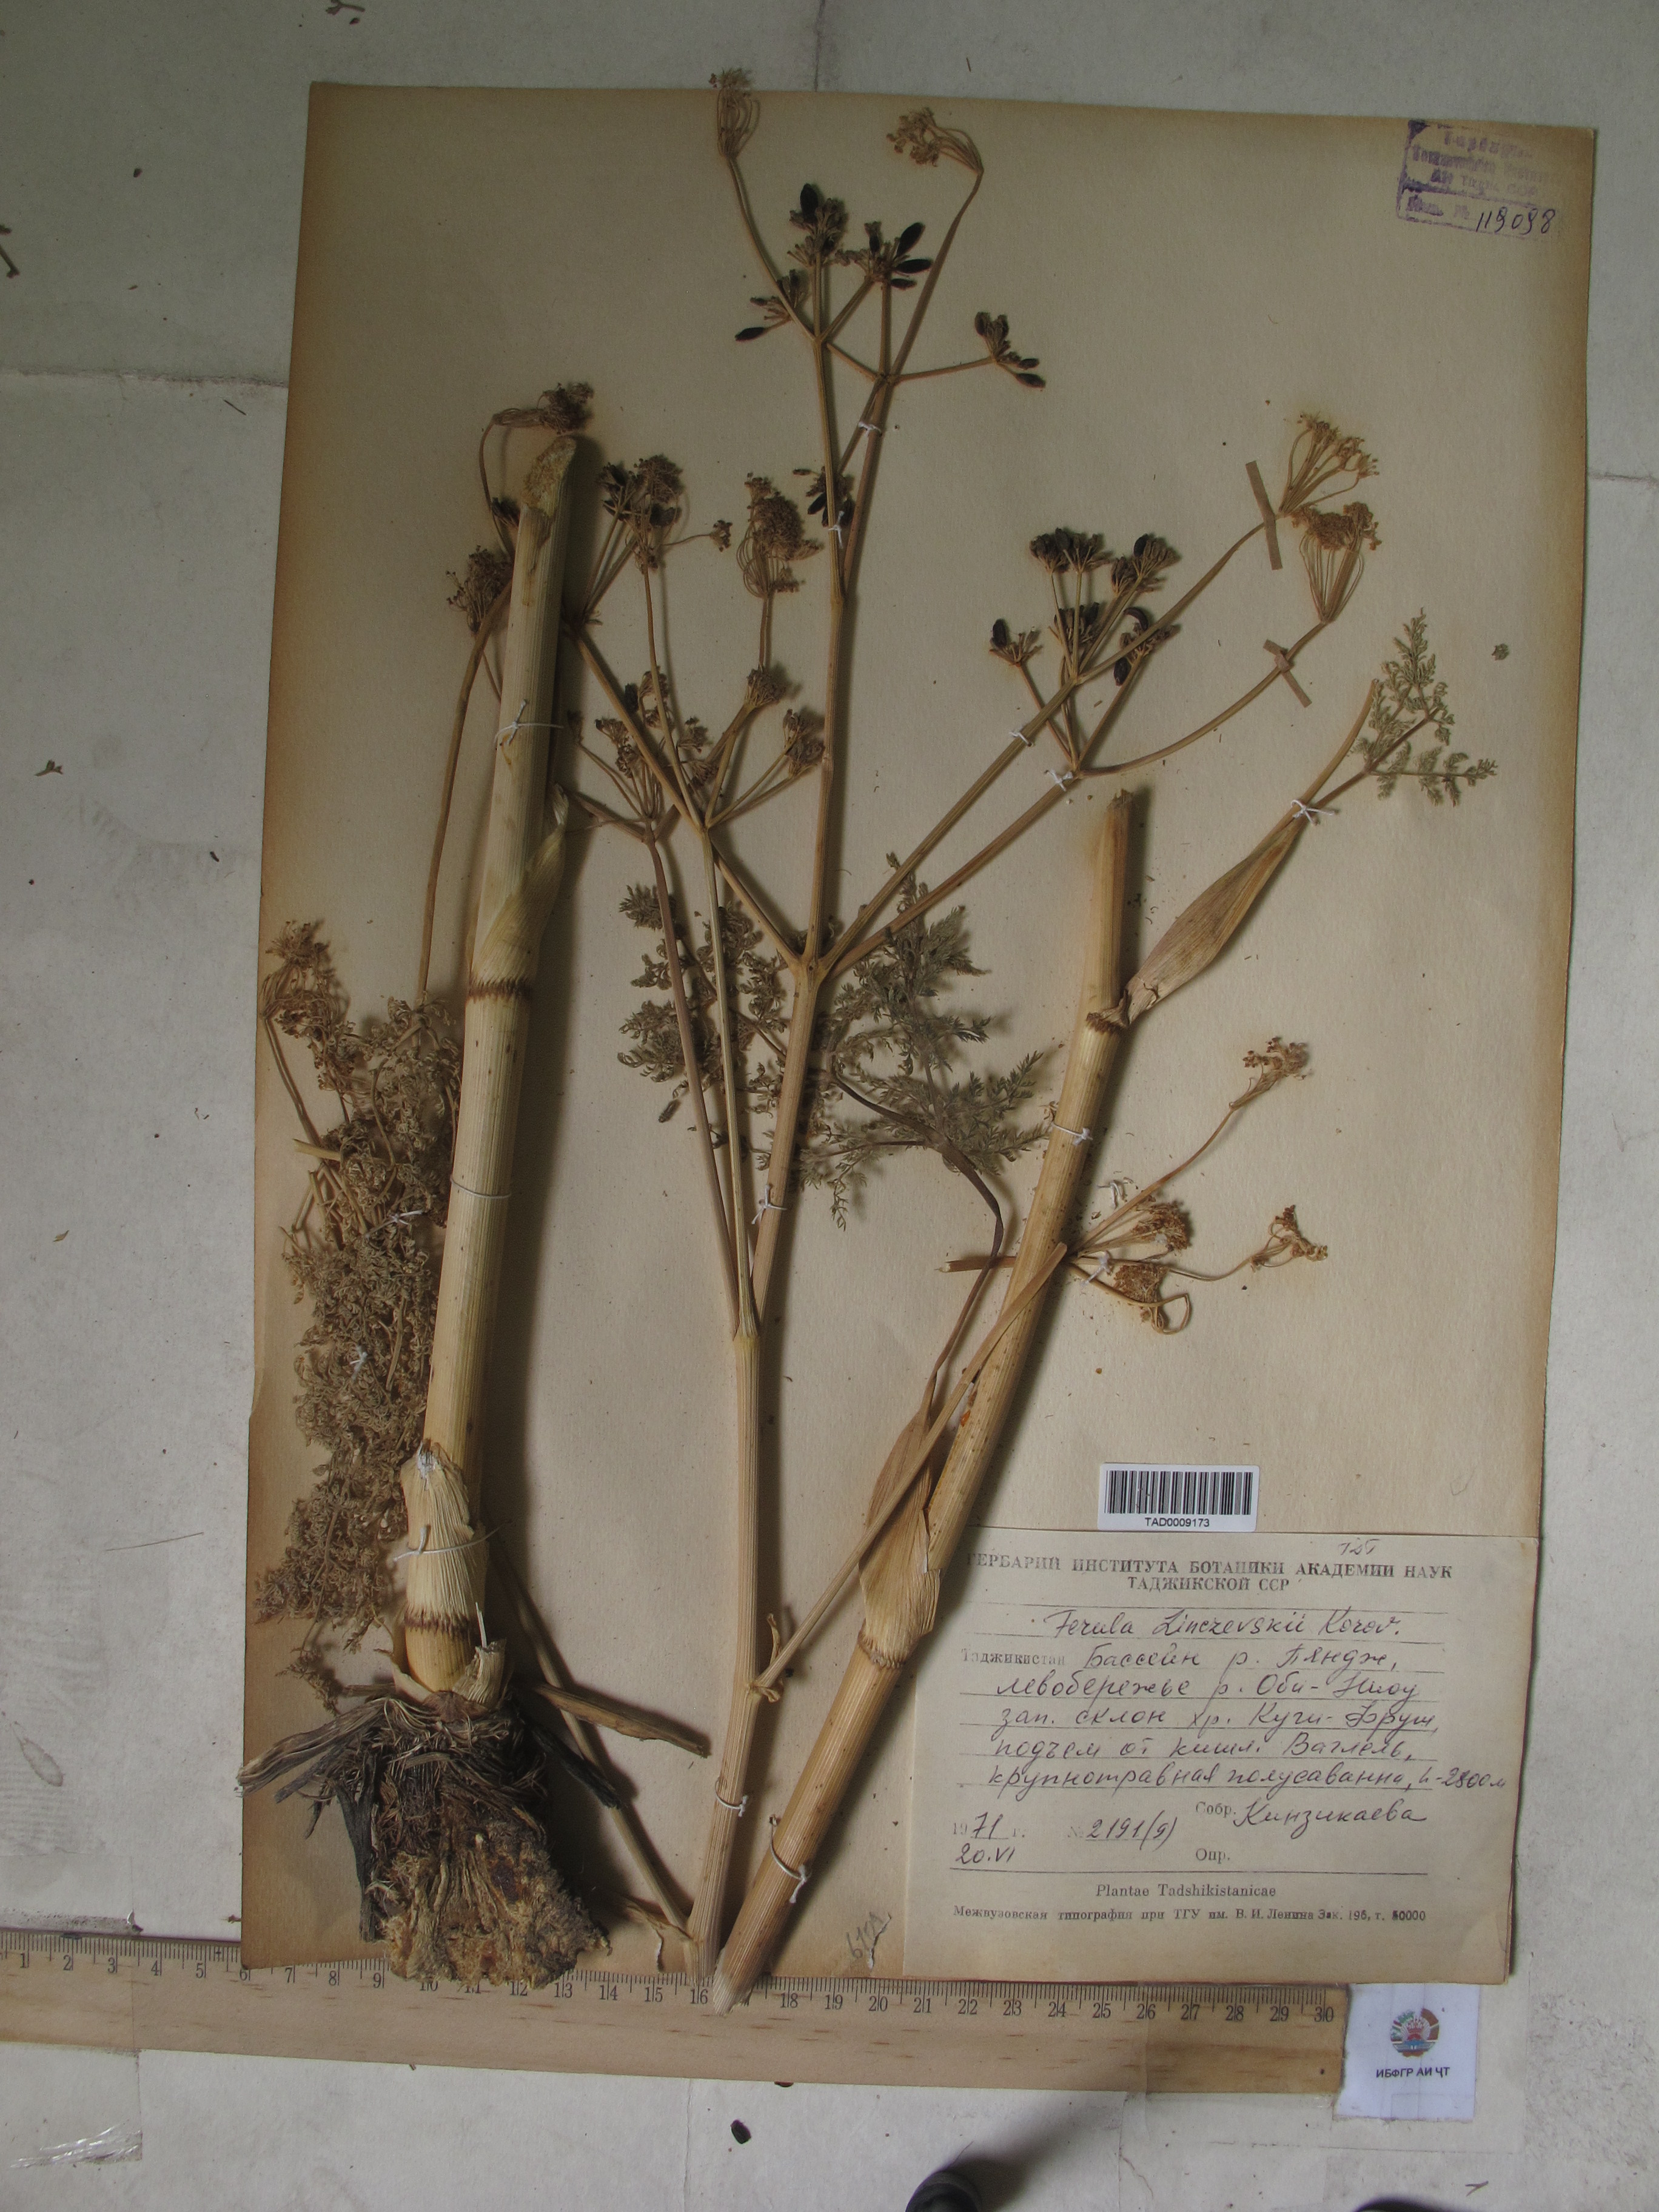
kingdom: Plantae
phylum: Tracheophyta
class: Magnoliopsida
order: Apiales
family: Apiaceae
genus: Ferula
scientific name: Ferula linczevskii
